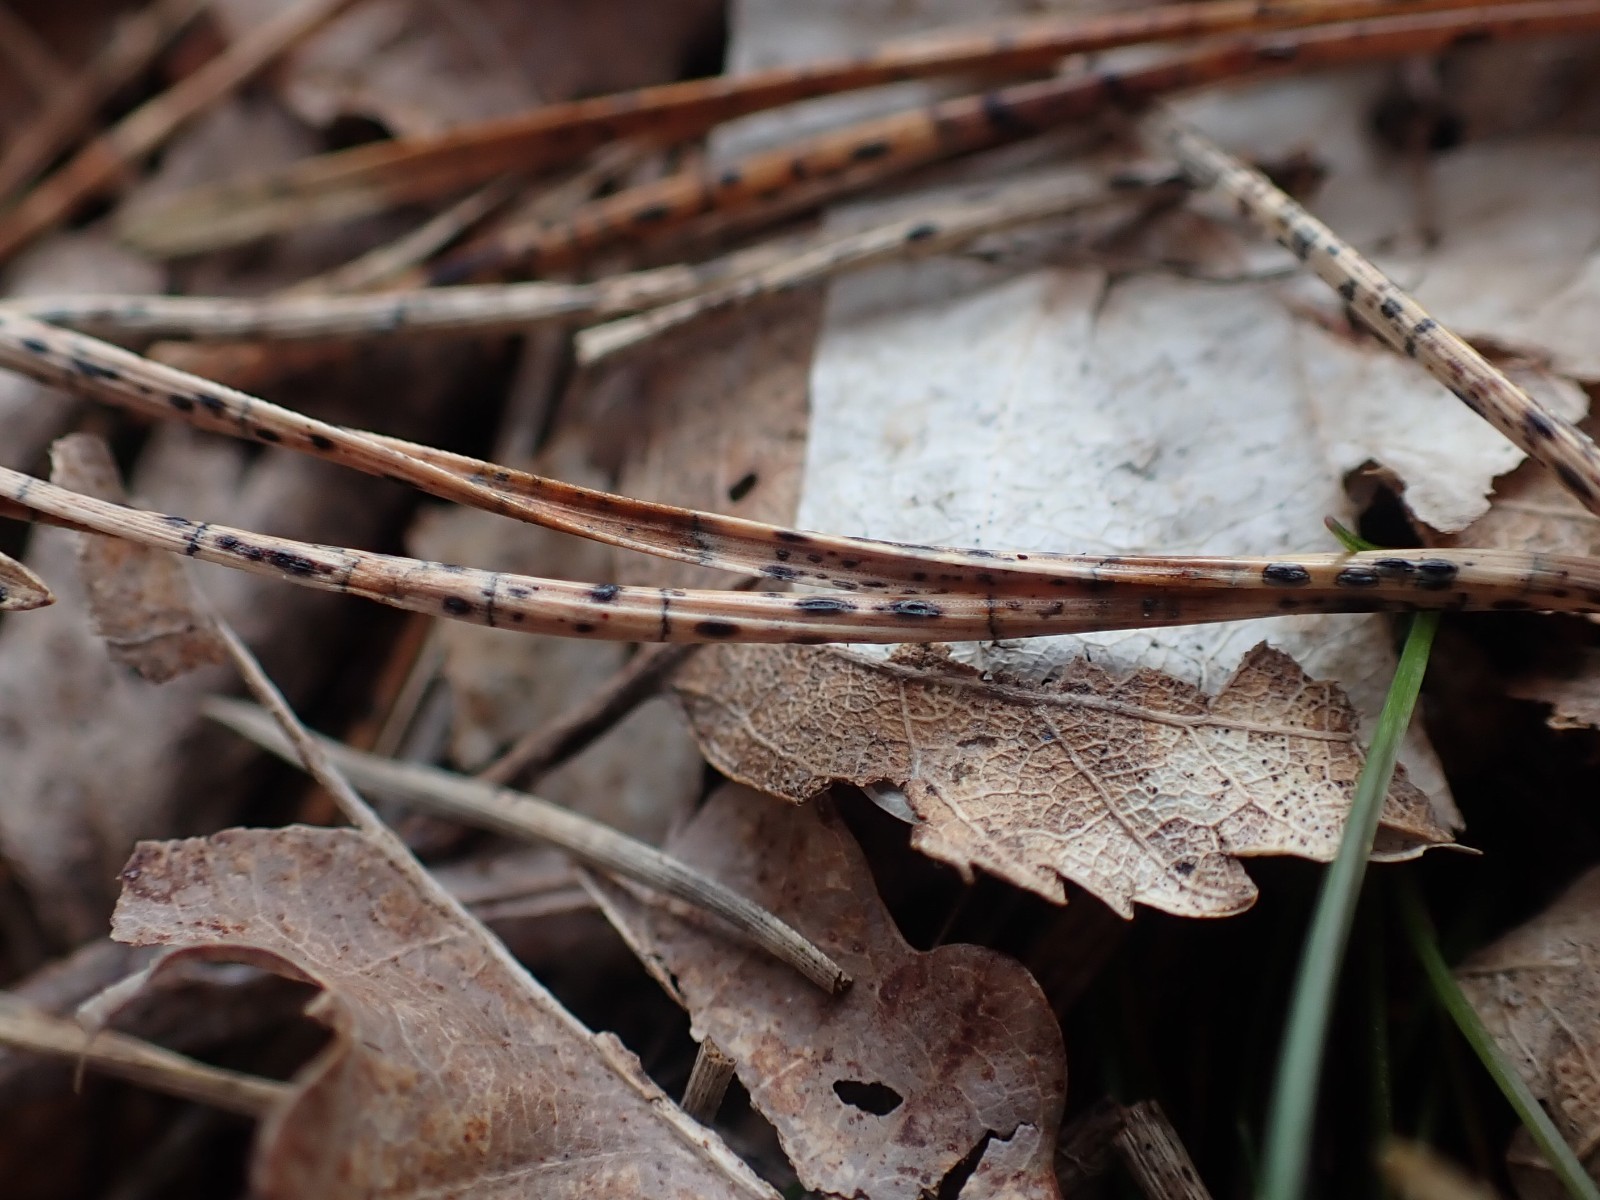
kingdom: Fungi
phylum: Ascomycota
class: Leotiomycetes
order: Rhytismatales
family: Rhytismataceae
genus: Lophodermium
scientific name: Lophodermium pinastri
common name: fyrre-fureplet
